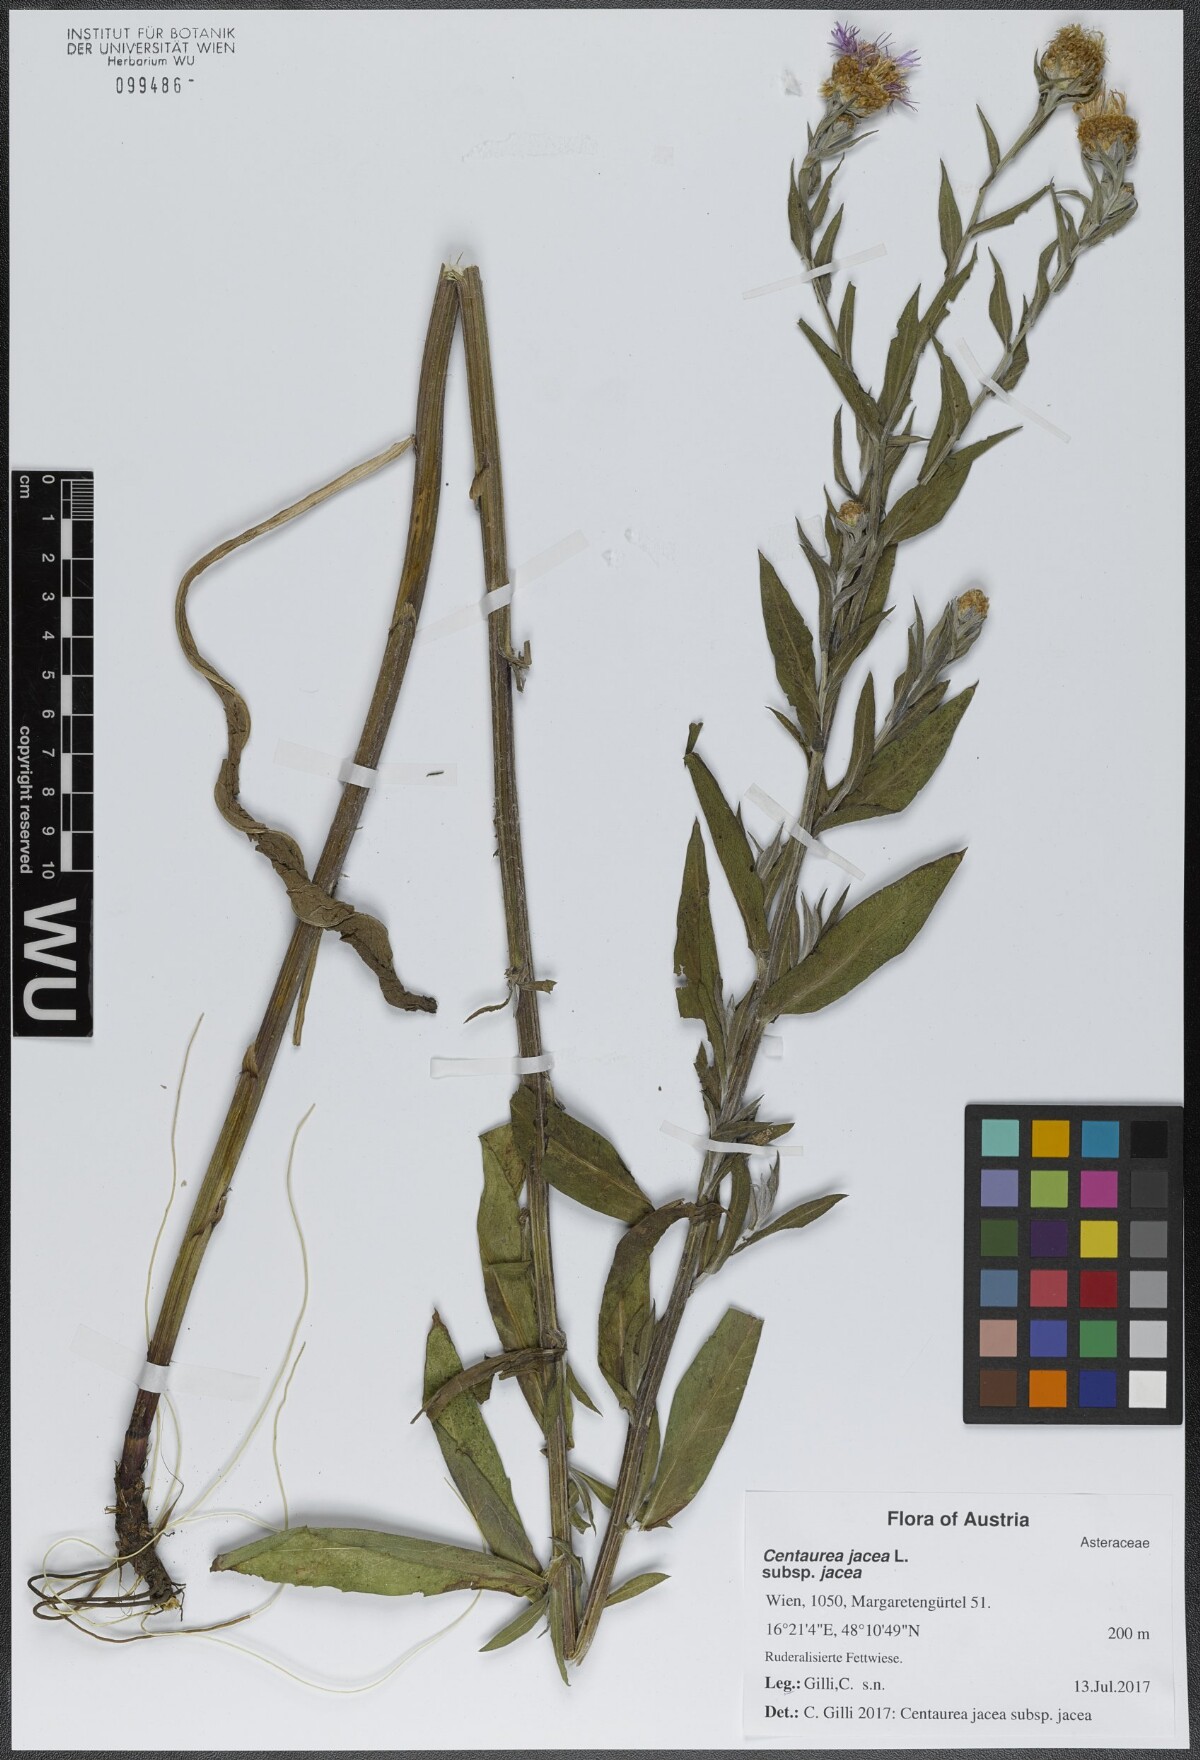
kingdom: Plantae
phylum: Tracheophyta
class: Magnoliopsida
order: Asterales
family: Asteraceae
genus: Centaurea
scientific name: Centaurea jacea
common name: Brown knapweed
